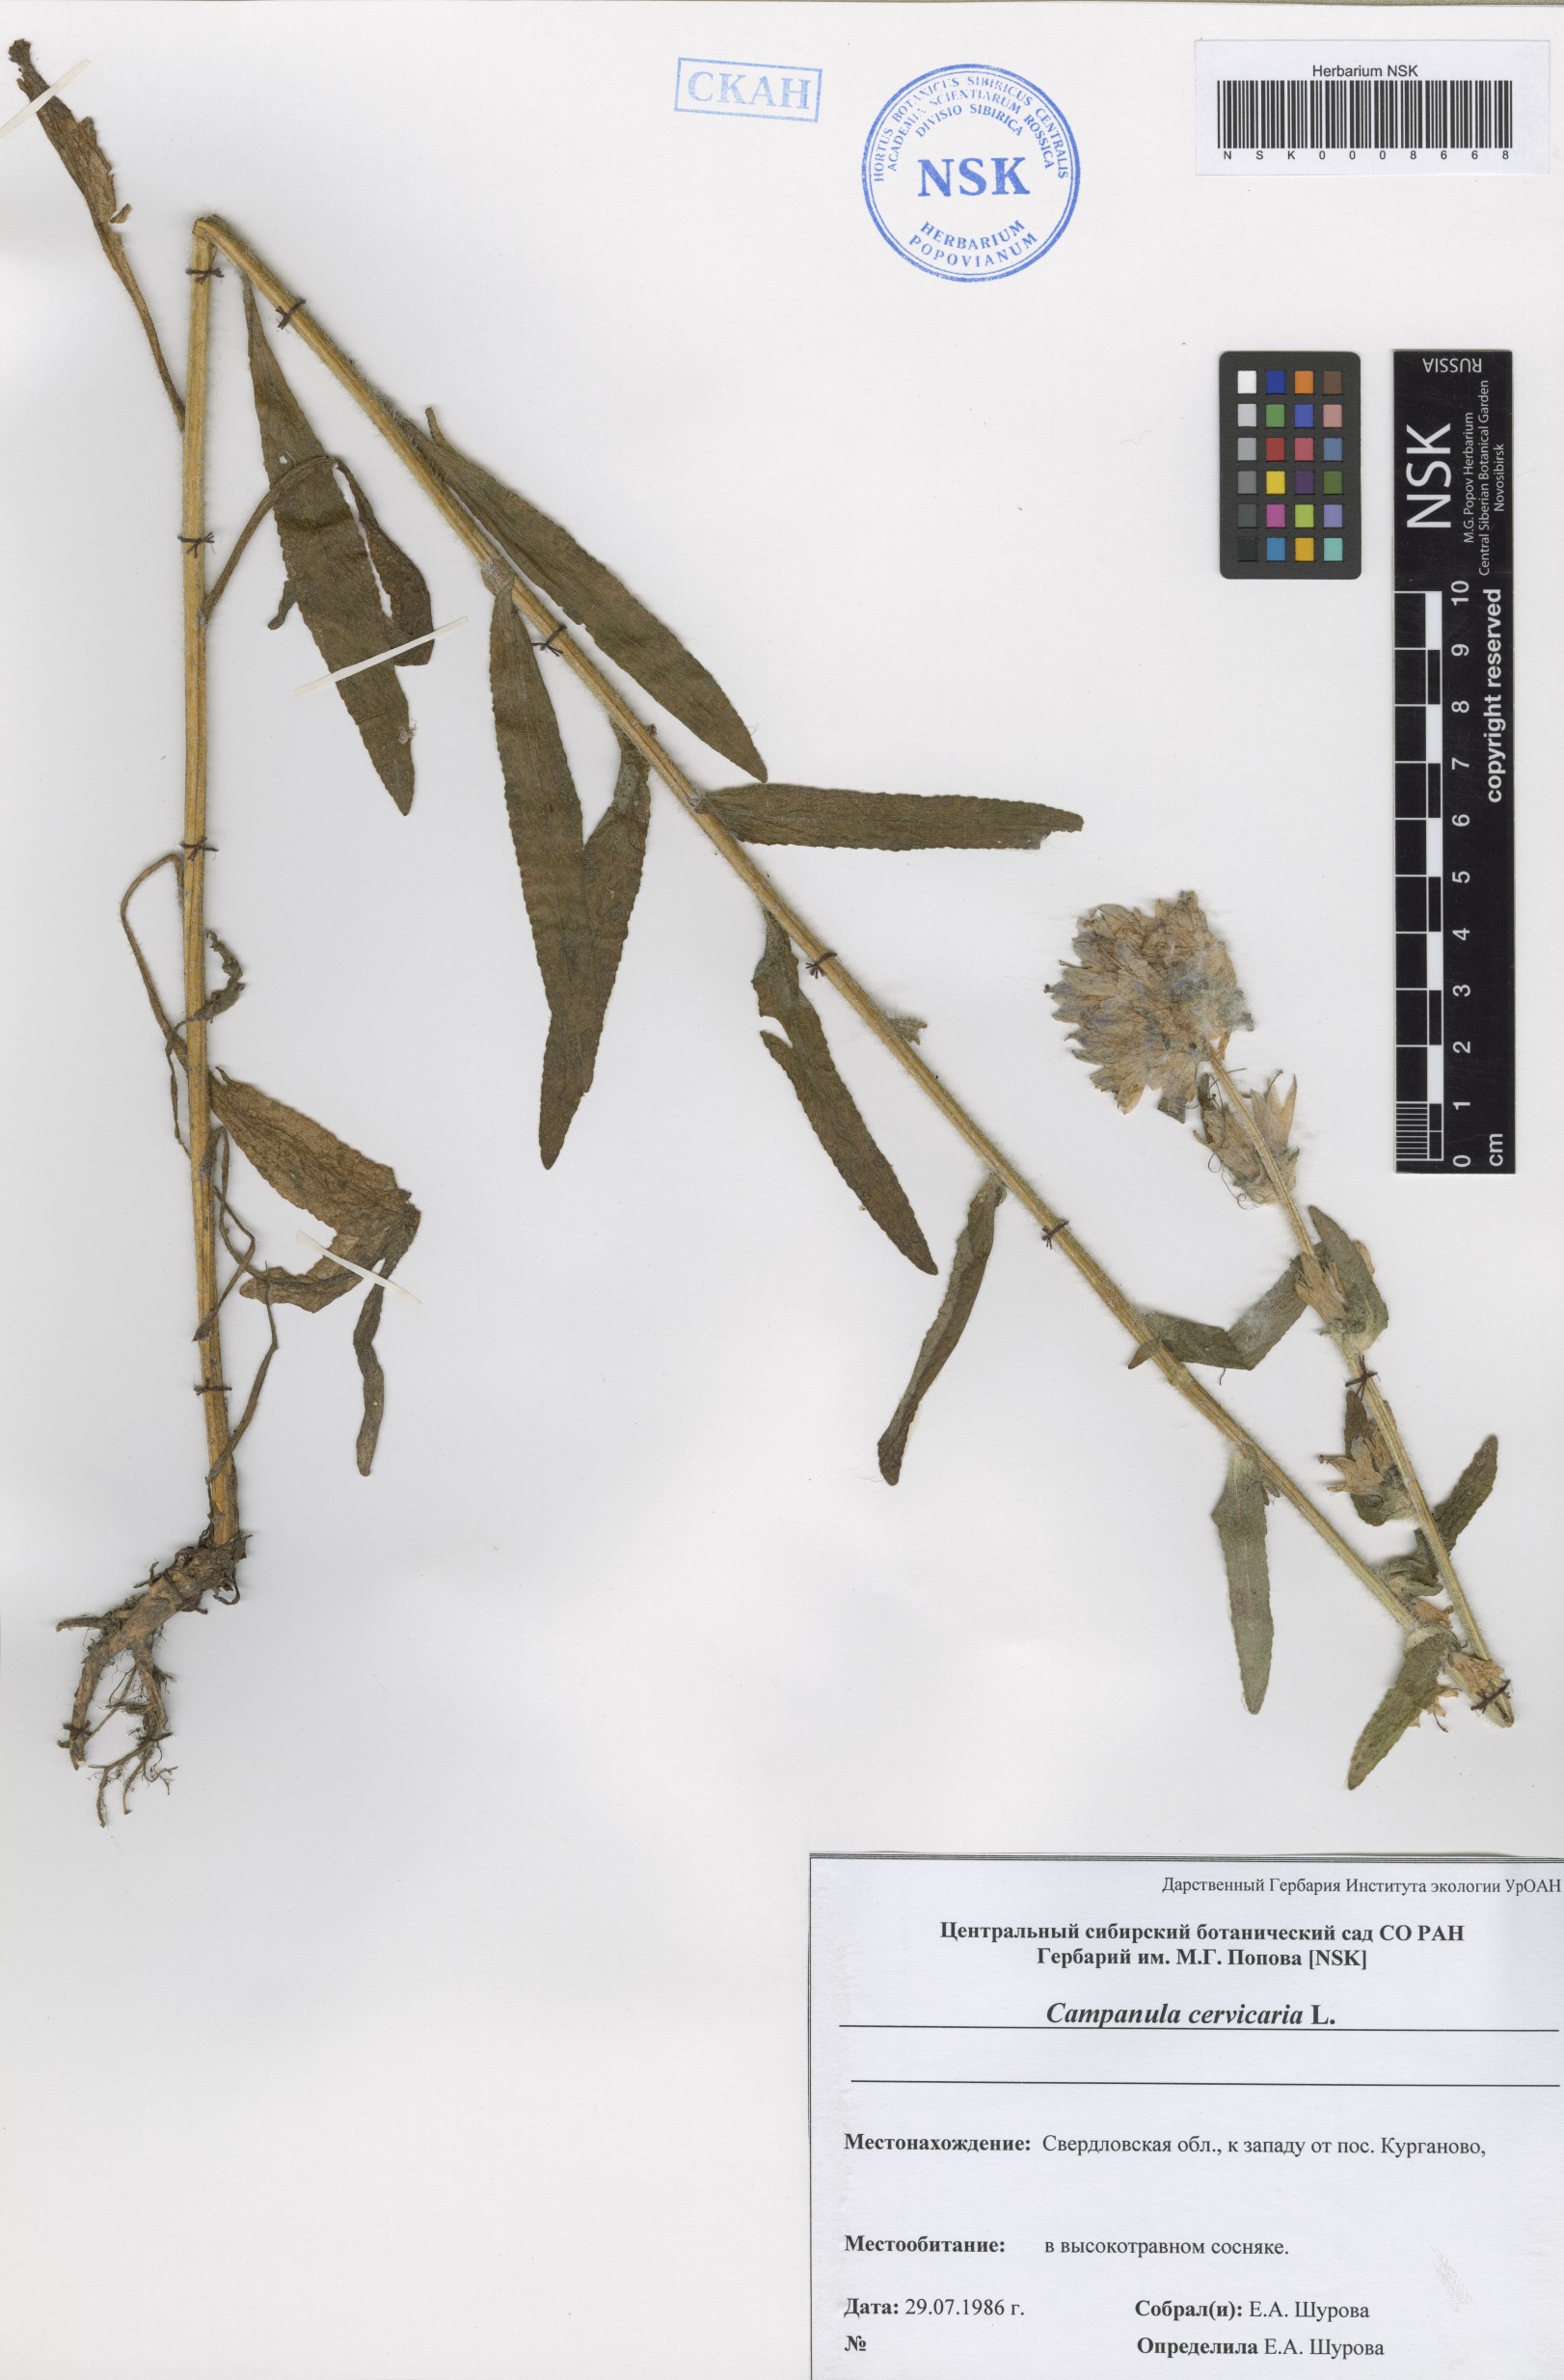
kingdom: Plantae
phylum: Tracheophyta
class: Magnoliopsida
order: Asterales
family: Campanulaceae
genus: Campanula
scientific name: Campanula cervicaria
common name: Bristly bellflower
